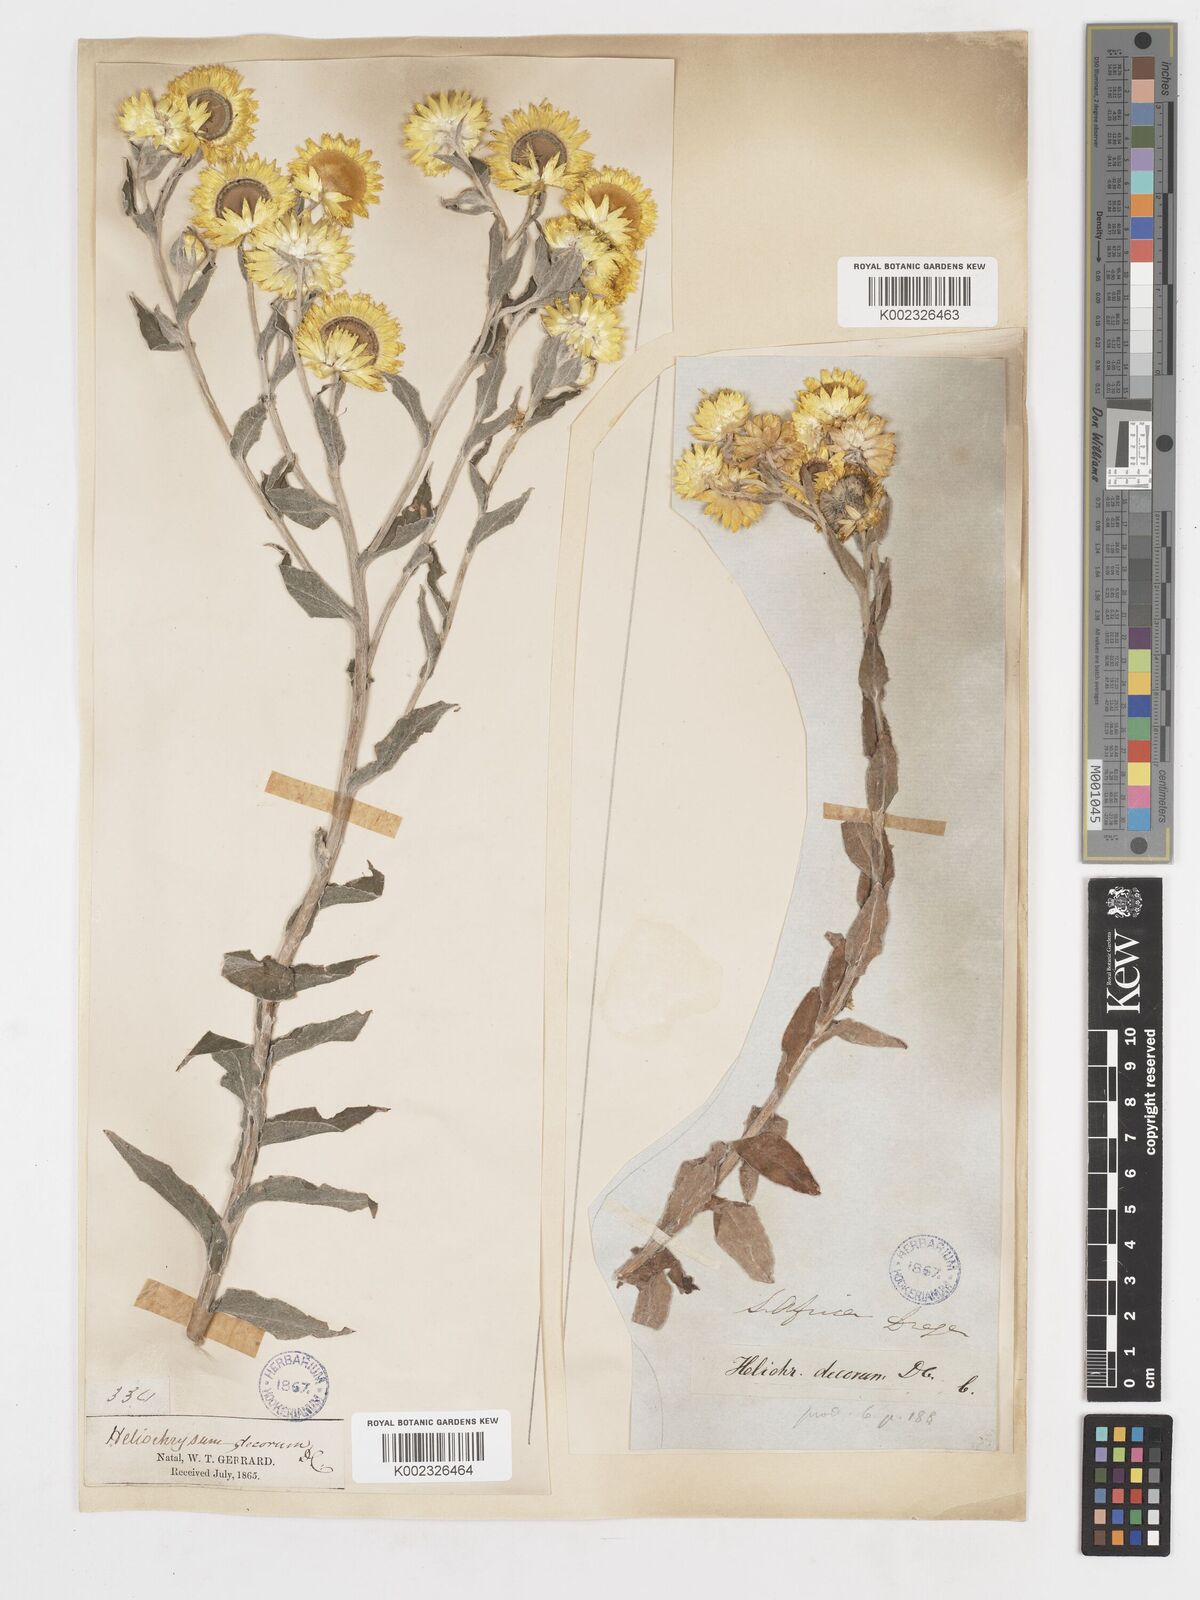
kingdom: Plantae
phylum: Tracheophyta
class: Magnoliopsida
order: Asterales
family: Asteraceae
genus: Helichrysum
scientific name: Helichrysum decorum
